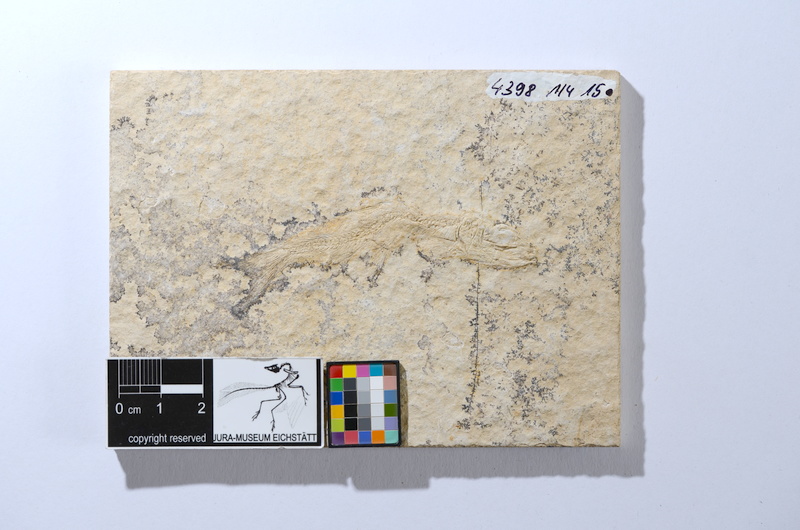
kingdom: Animalia
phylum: Chordata
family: Ascalaboidae
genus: Tharsis
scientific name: Tharsis dubius
